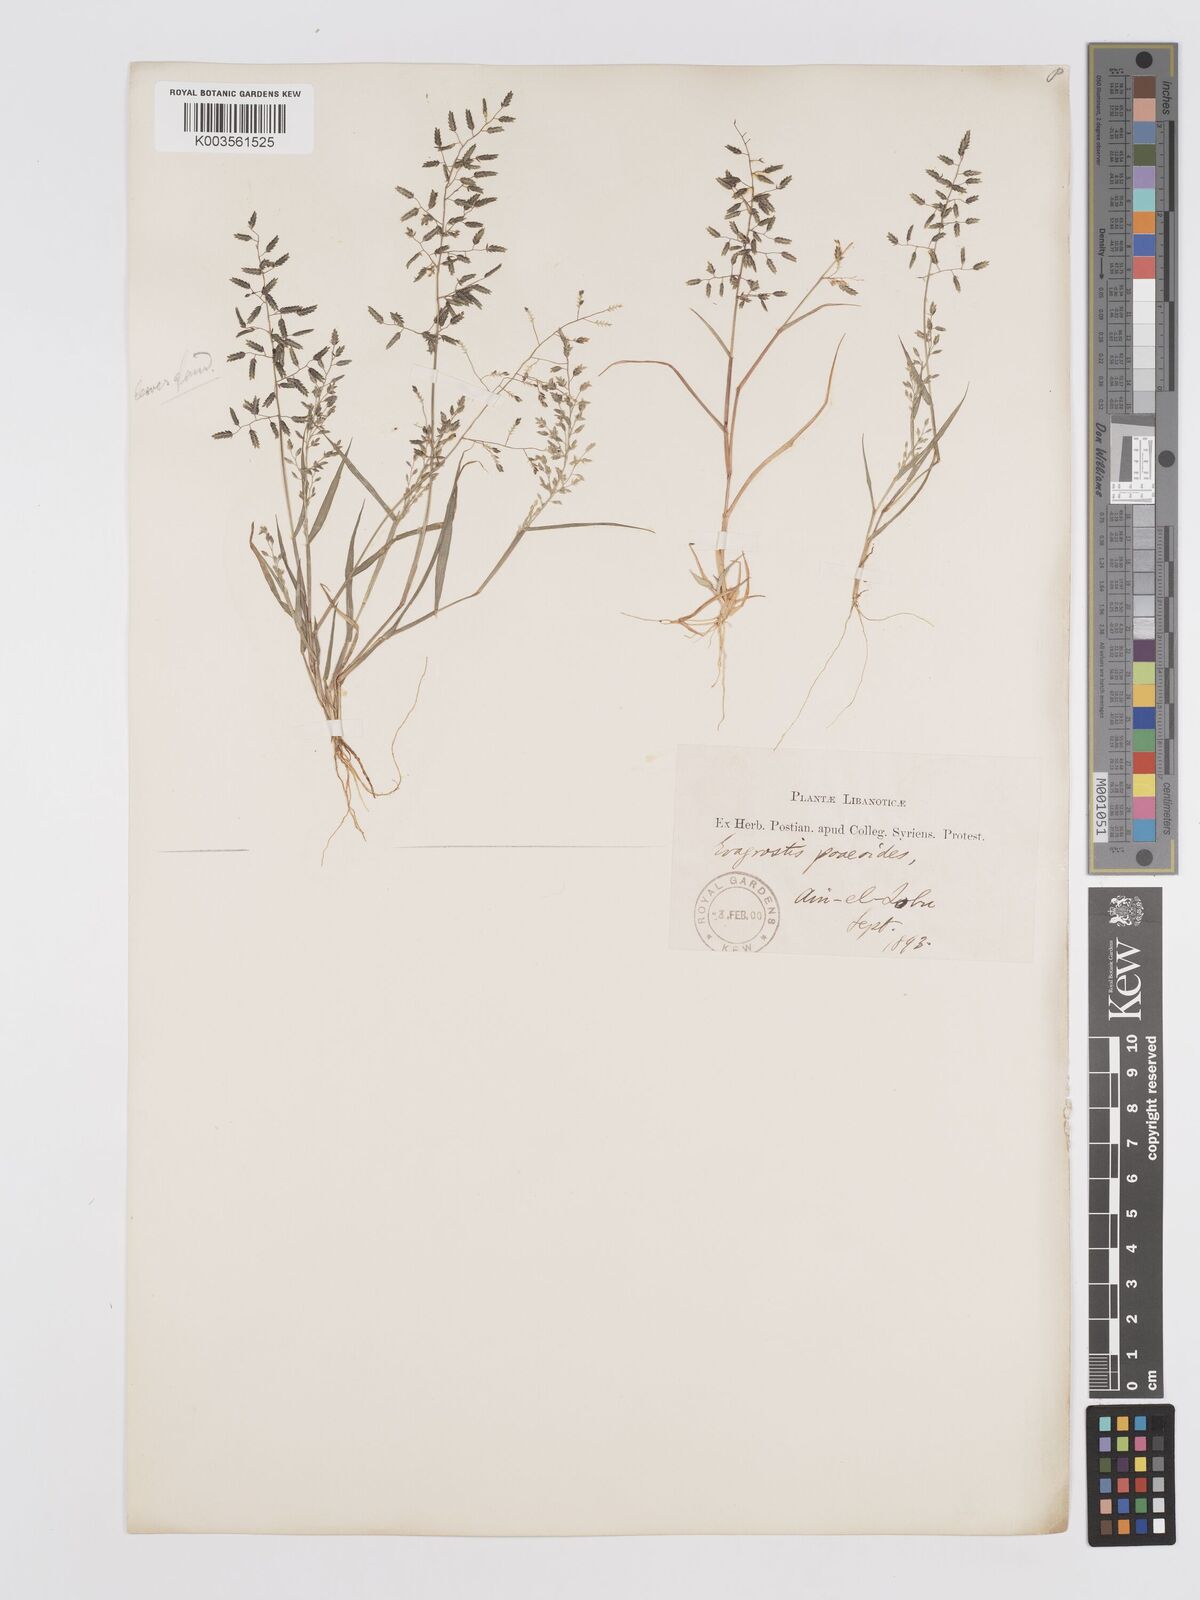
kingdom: Plantae
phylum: Tracheophyta
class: Liliopsida
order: Poales
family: Poaceae
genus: Eragrostis
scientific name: Eragrostis minor
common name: Small love-grass
